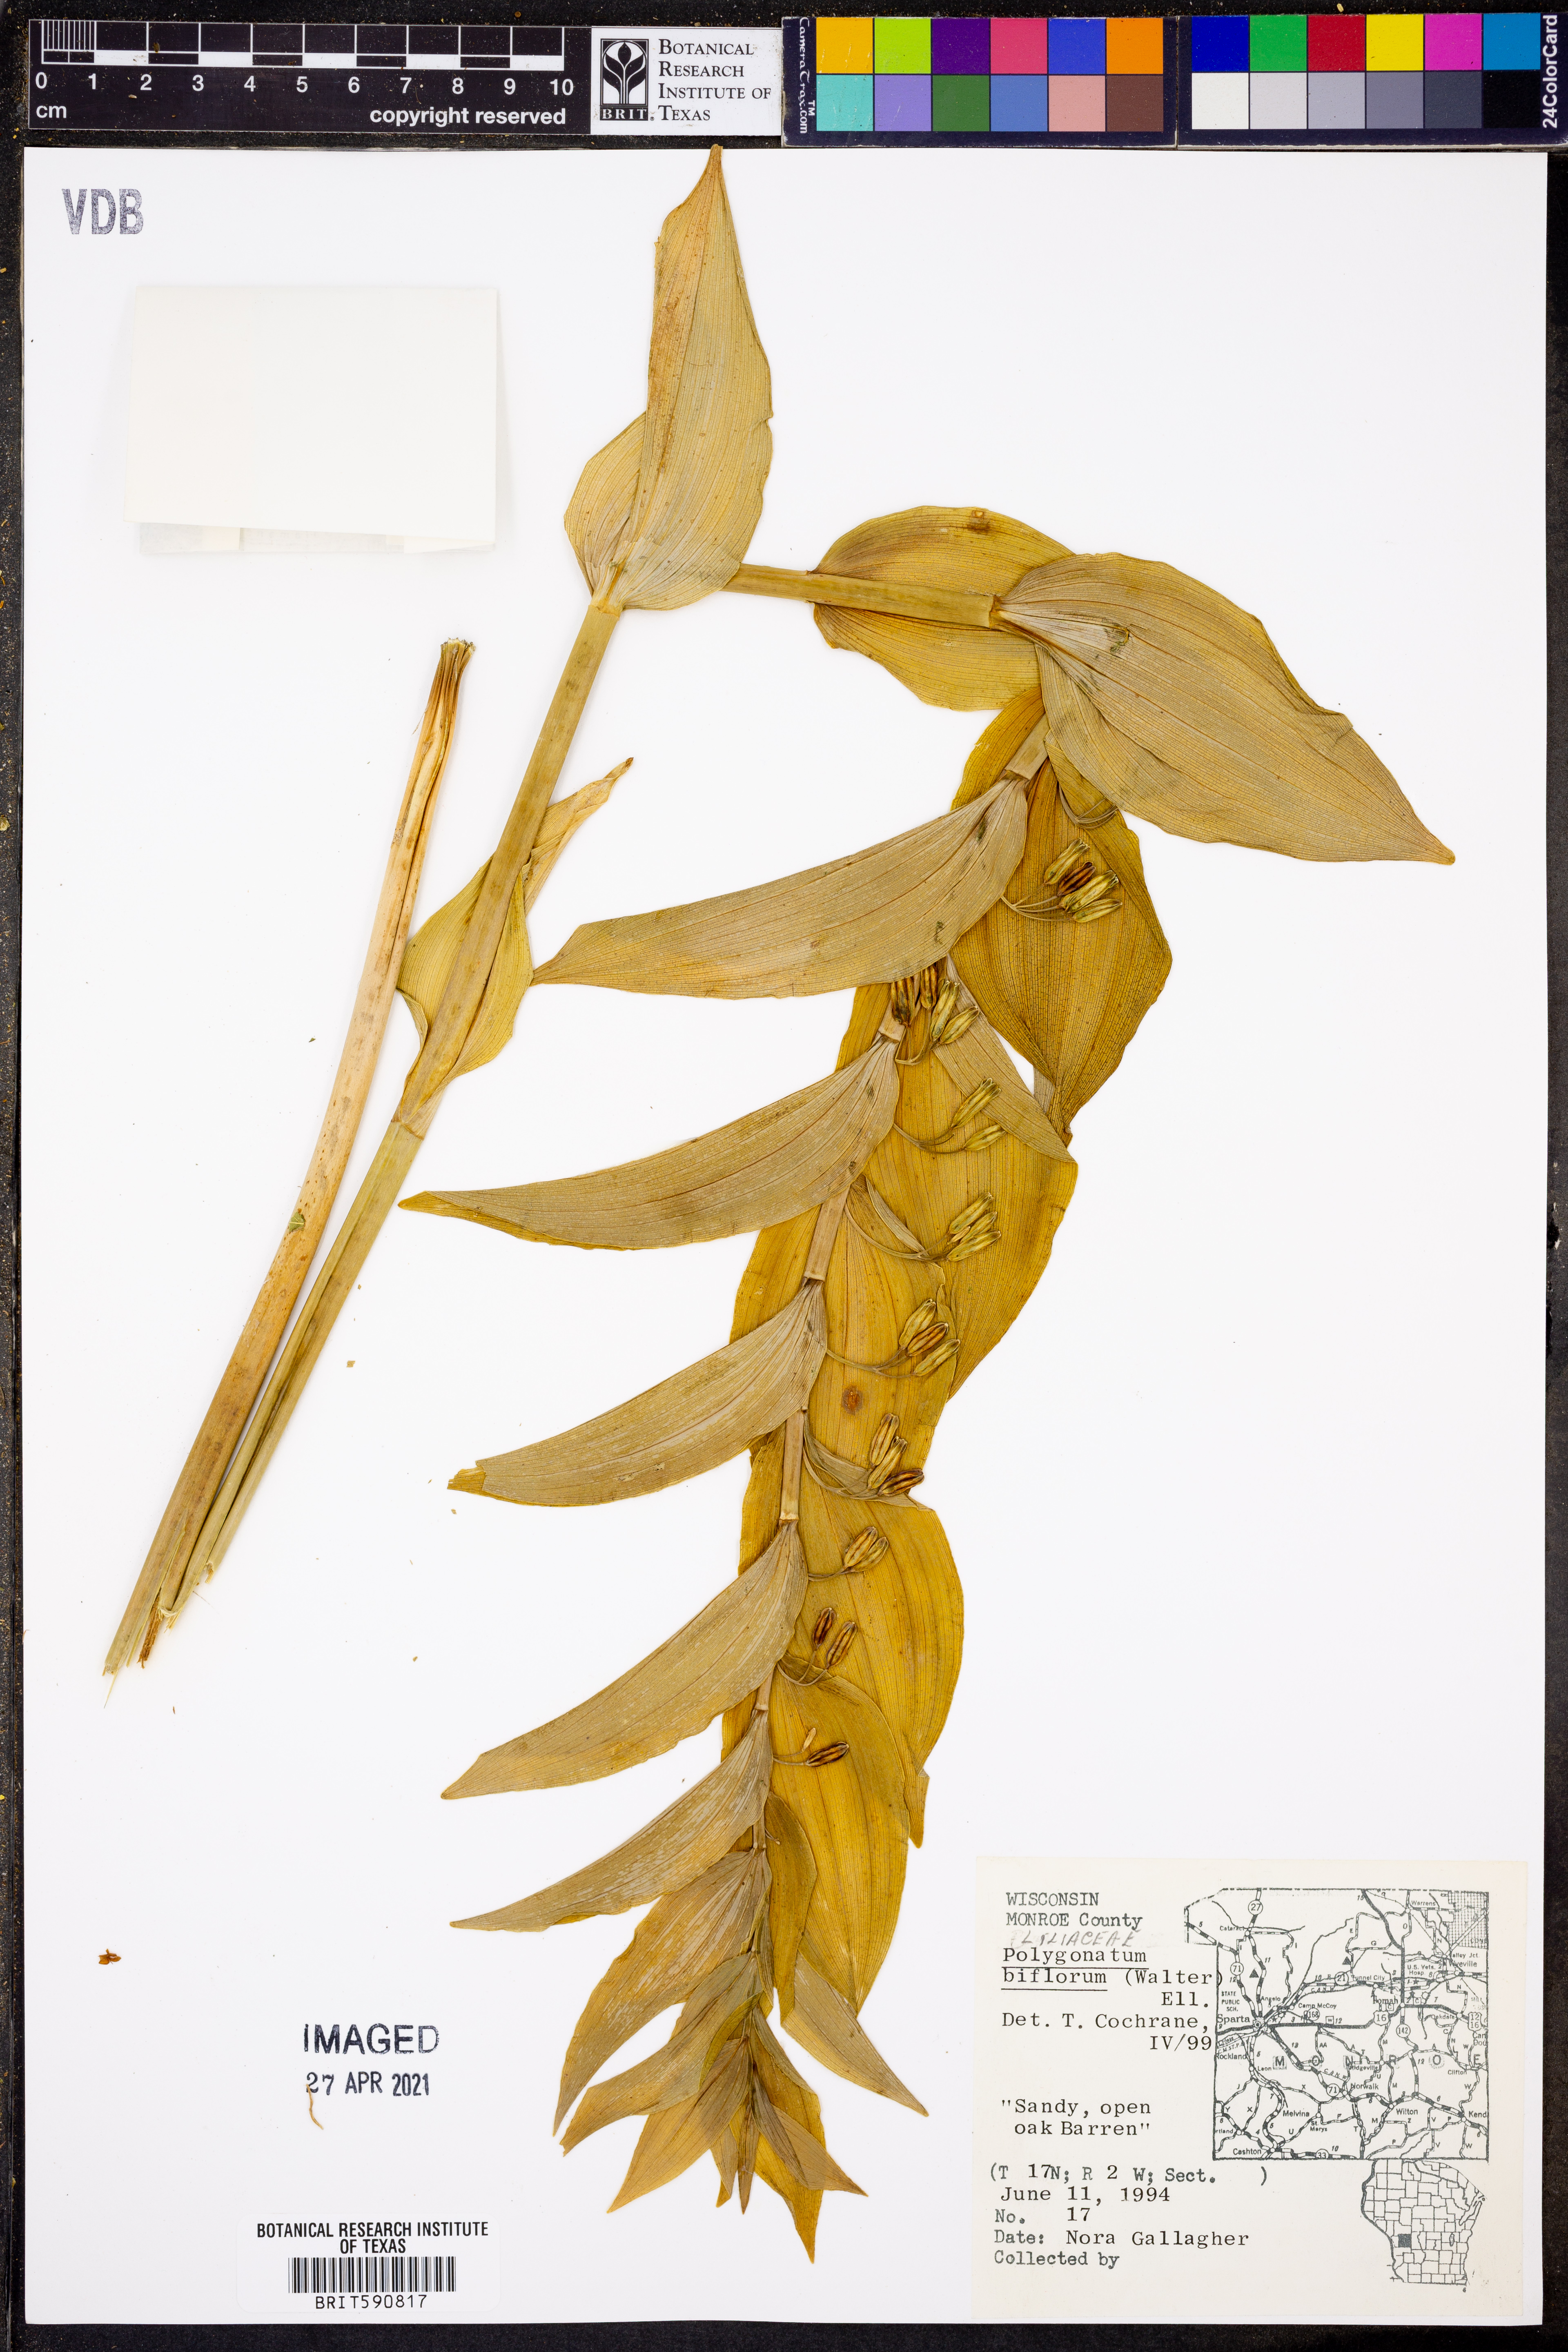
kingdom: Plantae
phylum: Tracheophyta
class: Liliopsida
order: Asparagales
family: Asparagaceae
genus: Polygonatum
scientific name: Polygonatum biflorum
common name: American solomon's-seal
